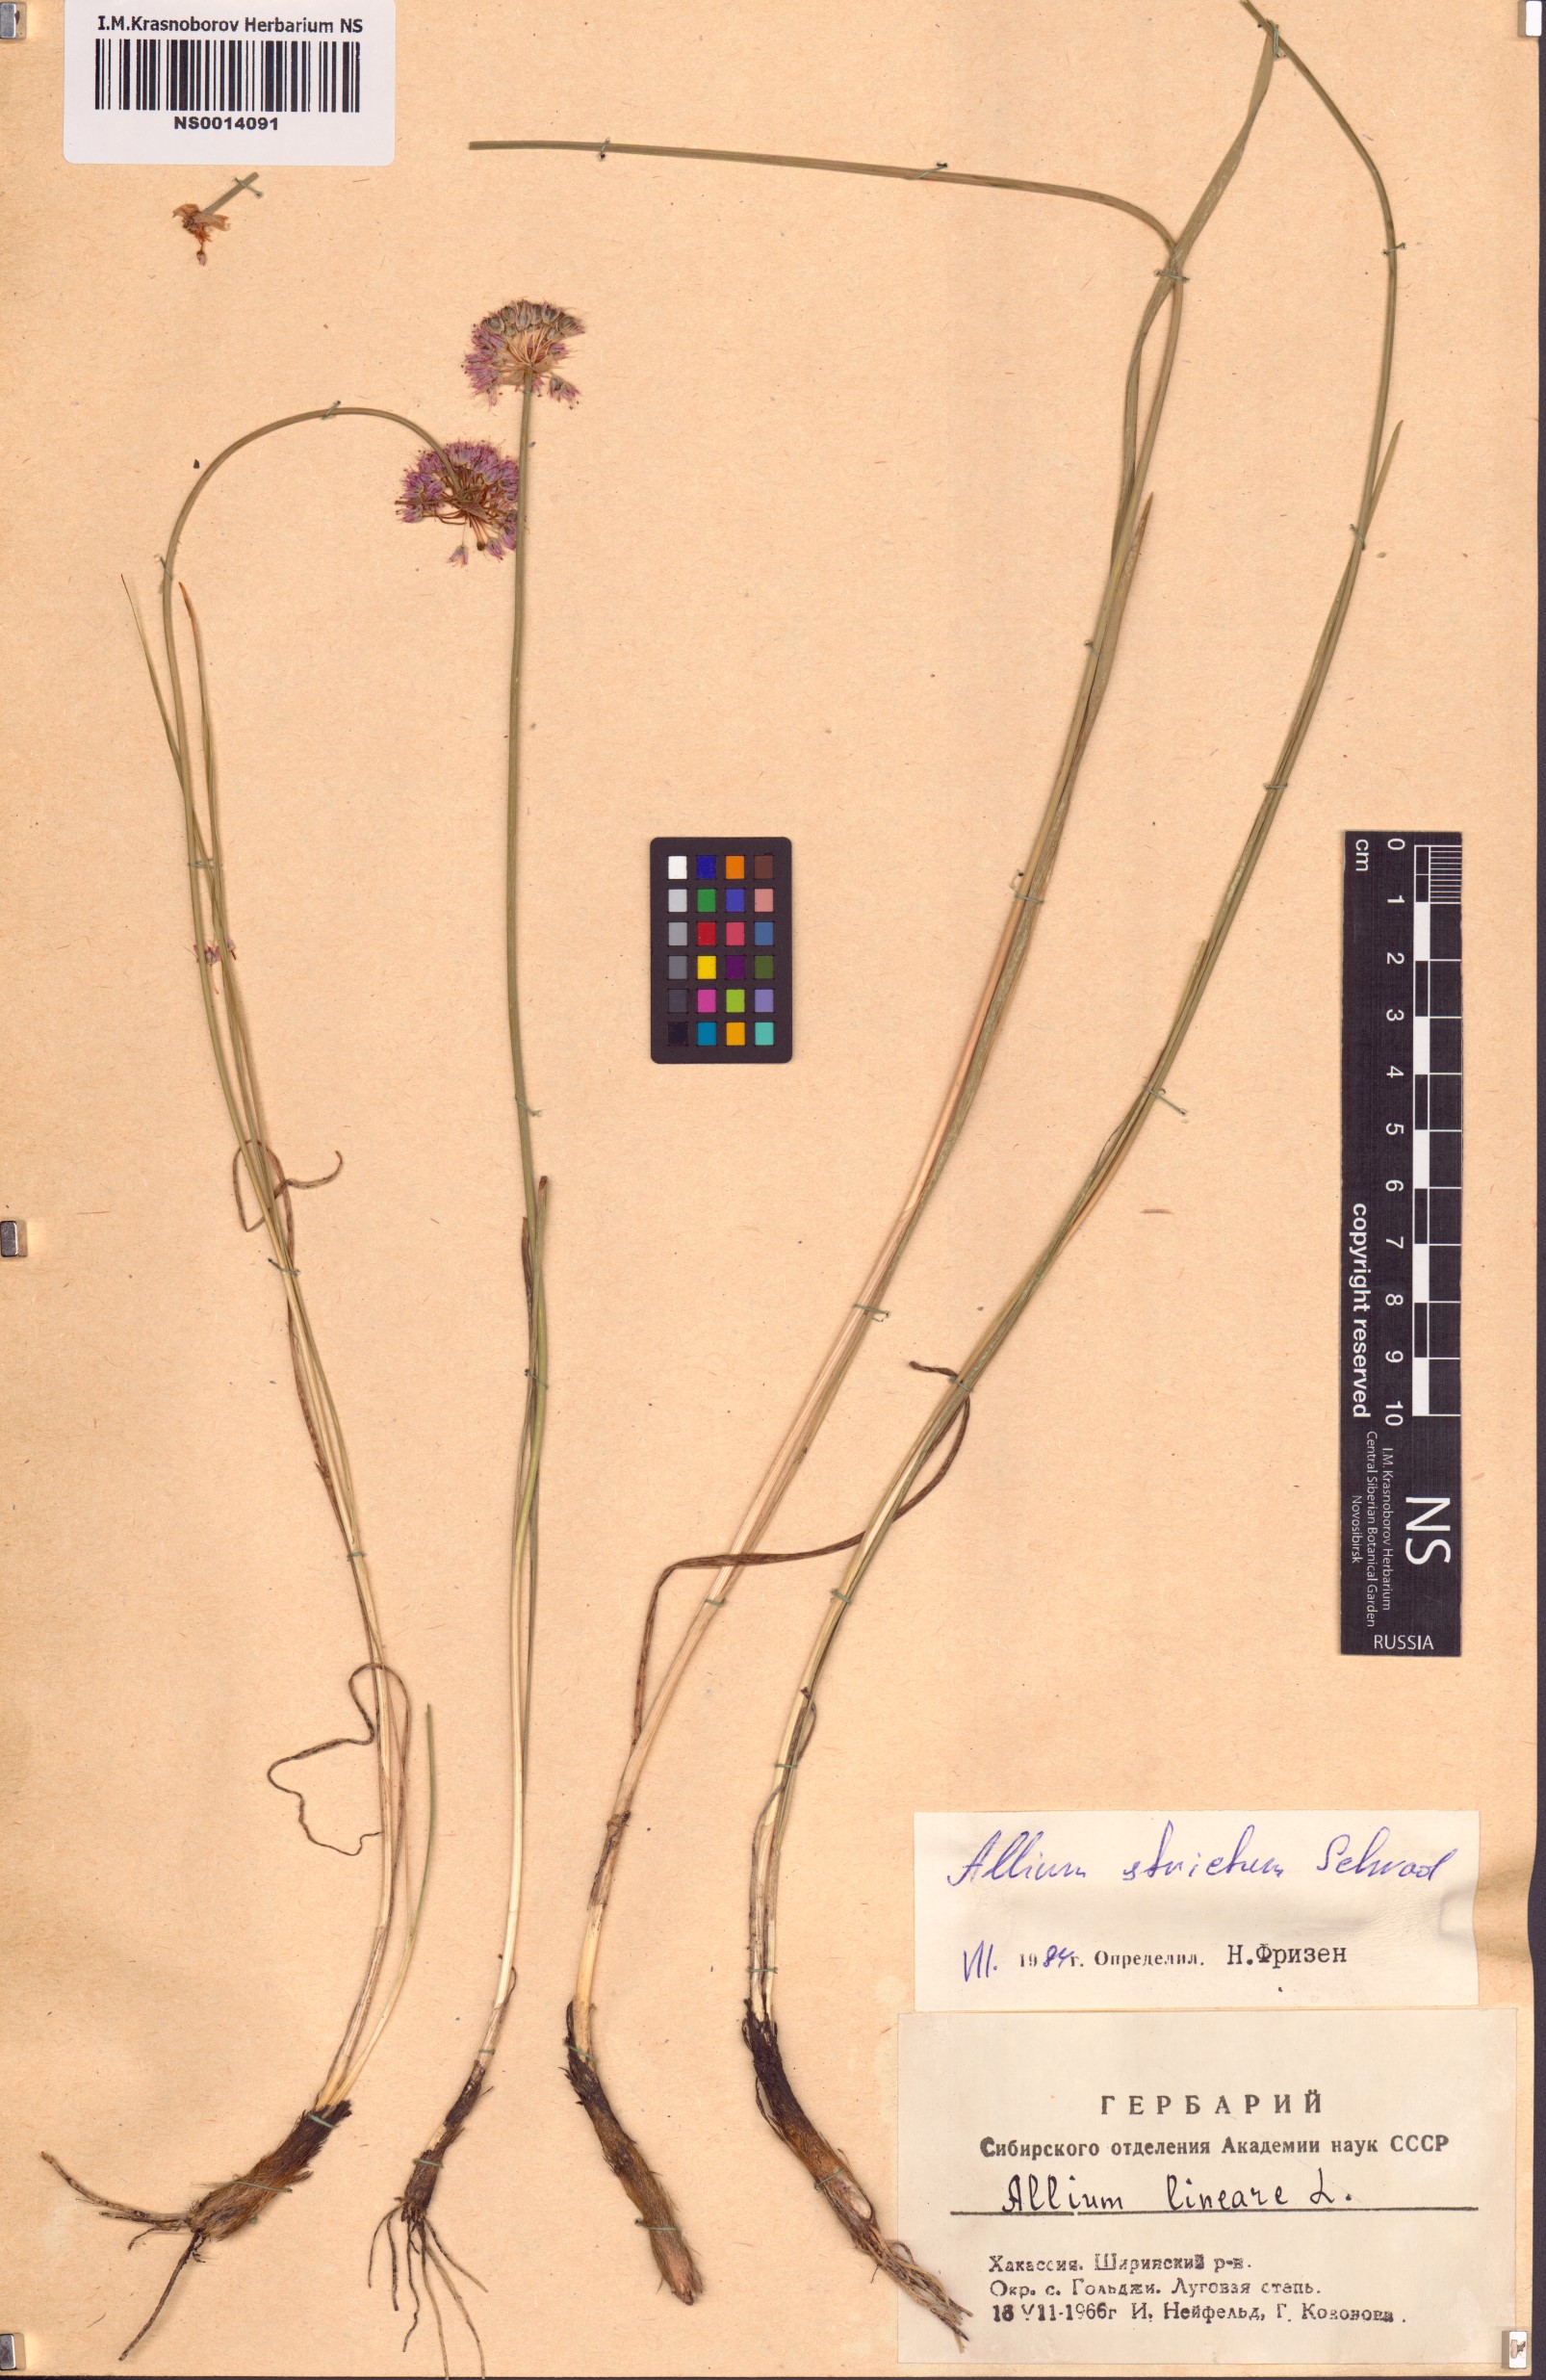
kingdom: Plantae
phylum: Tracheophyta
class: Liliopsida
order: Asparagales
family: Amaryllidaceae
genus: Allium
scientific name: Allium strictum
